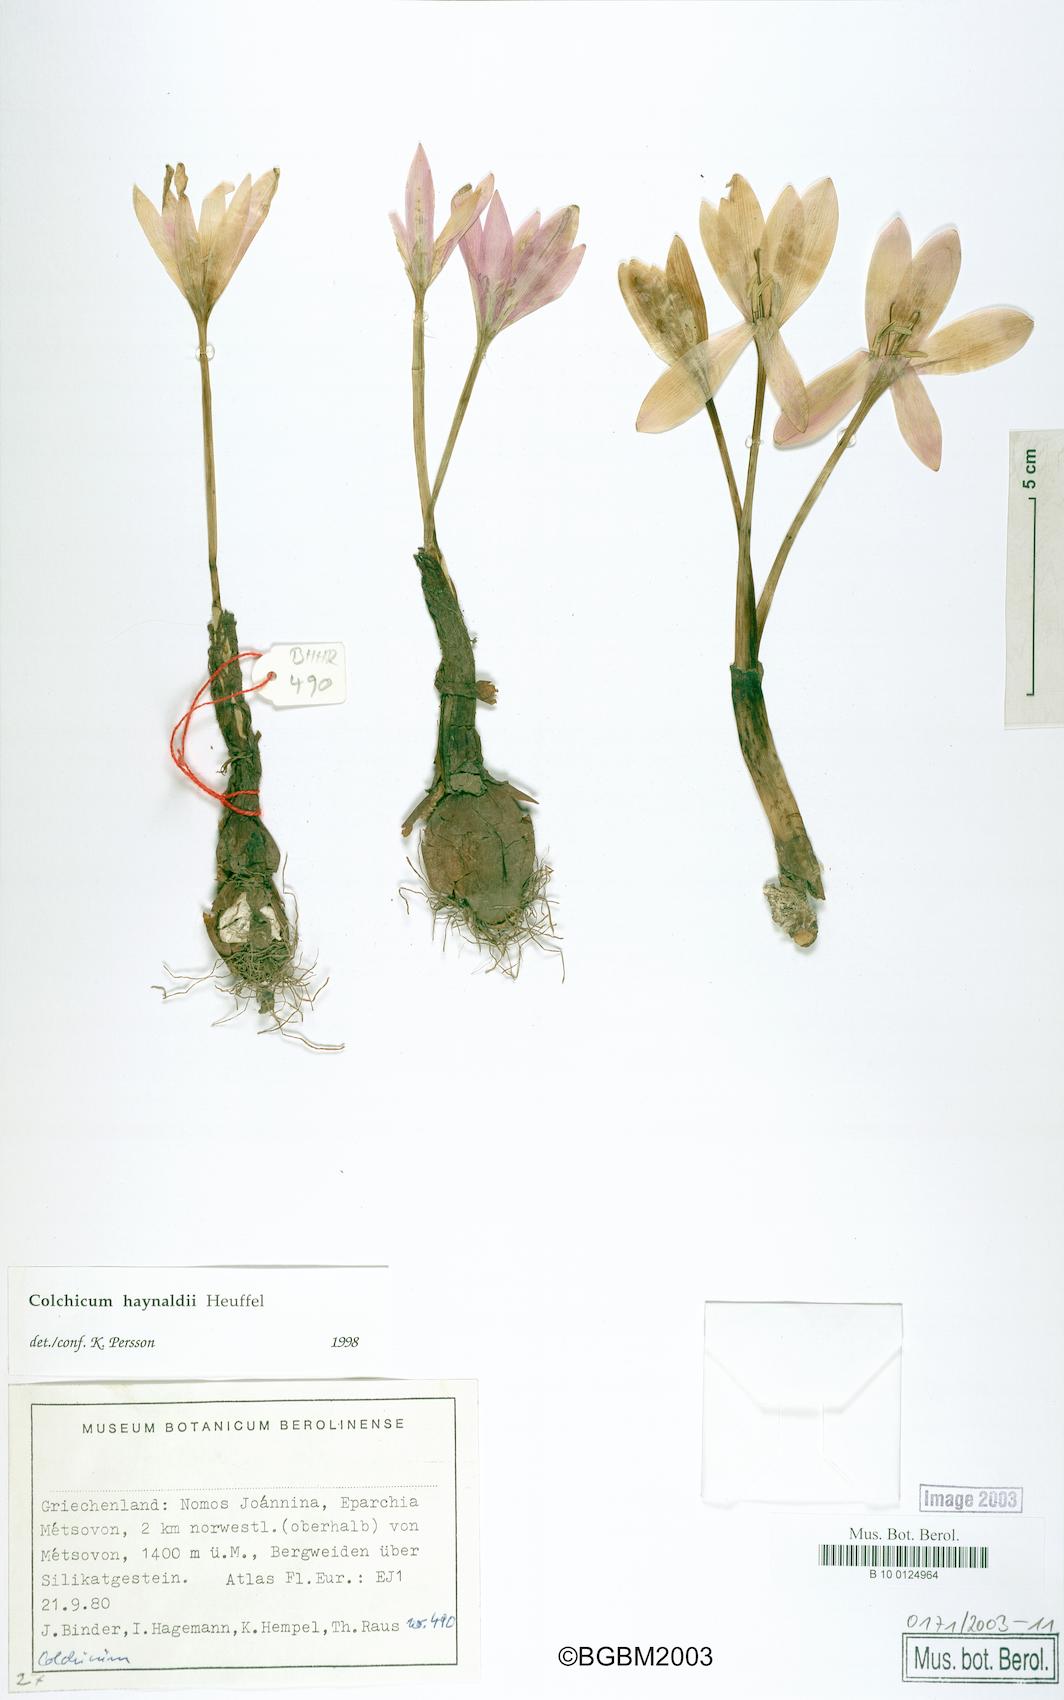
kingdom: Plantae
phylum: Tracheophyta
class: Liliopsida
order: Liliales
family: Colchicaceae
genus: Colchicum
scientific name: Colchicum haynaldii
